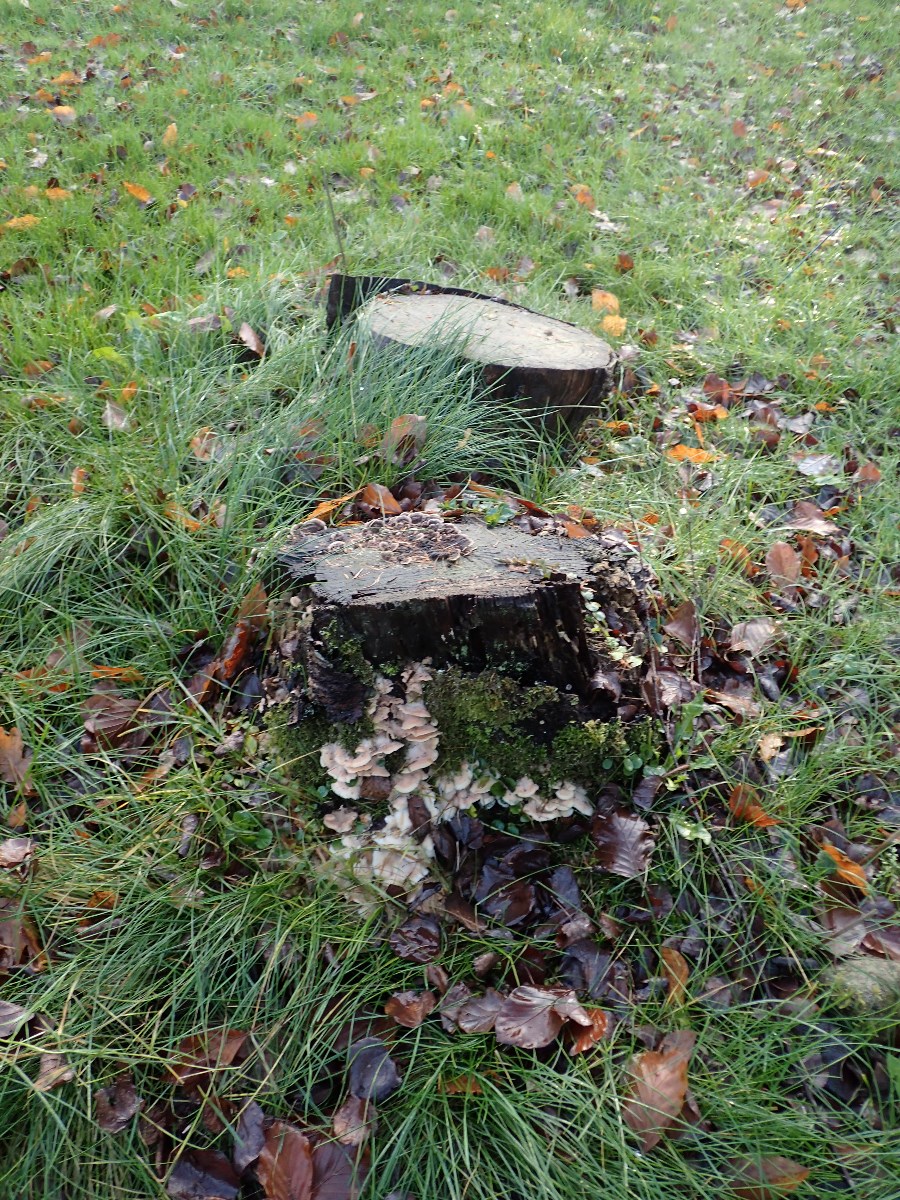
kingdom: Fungi
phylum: Basidiomycota
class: Agaricomycetes
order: Polyporales
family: Meruliaceae
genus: Phlebia
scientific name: Phlebia tremellosa
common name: bævrende åresvamp
